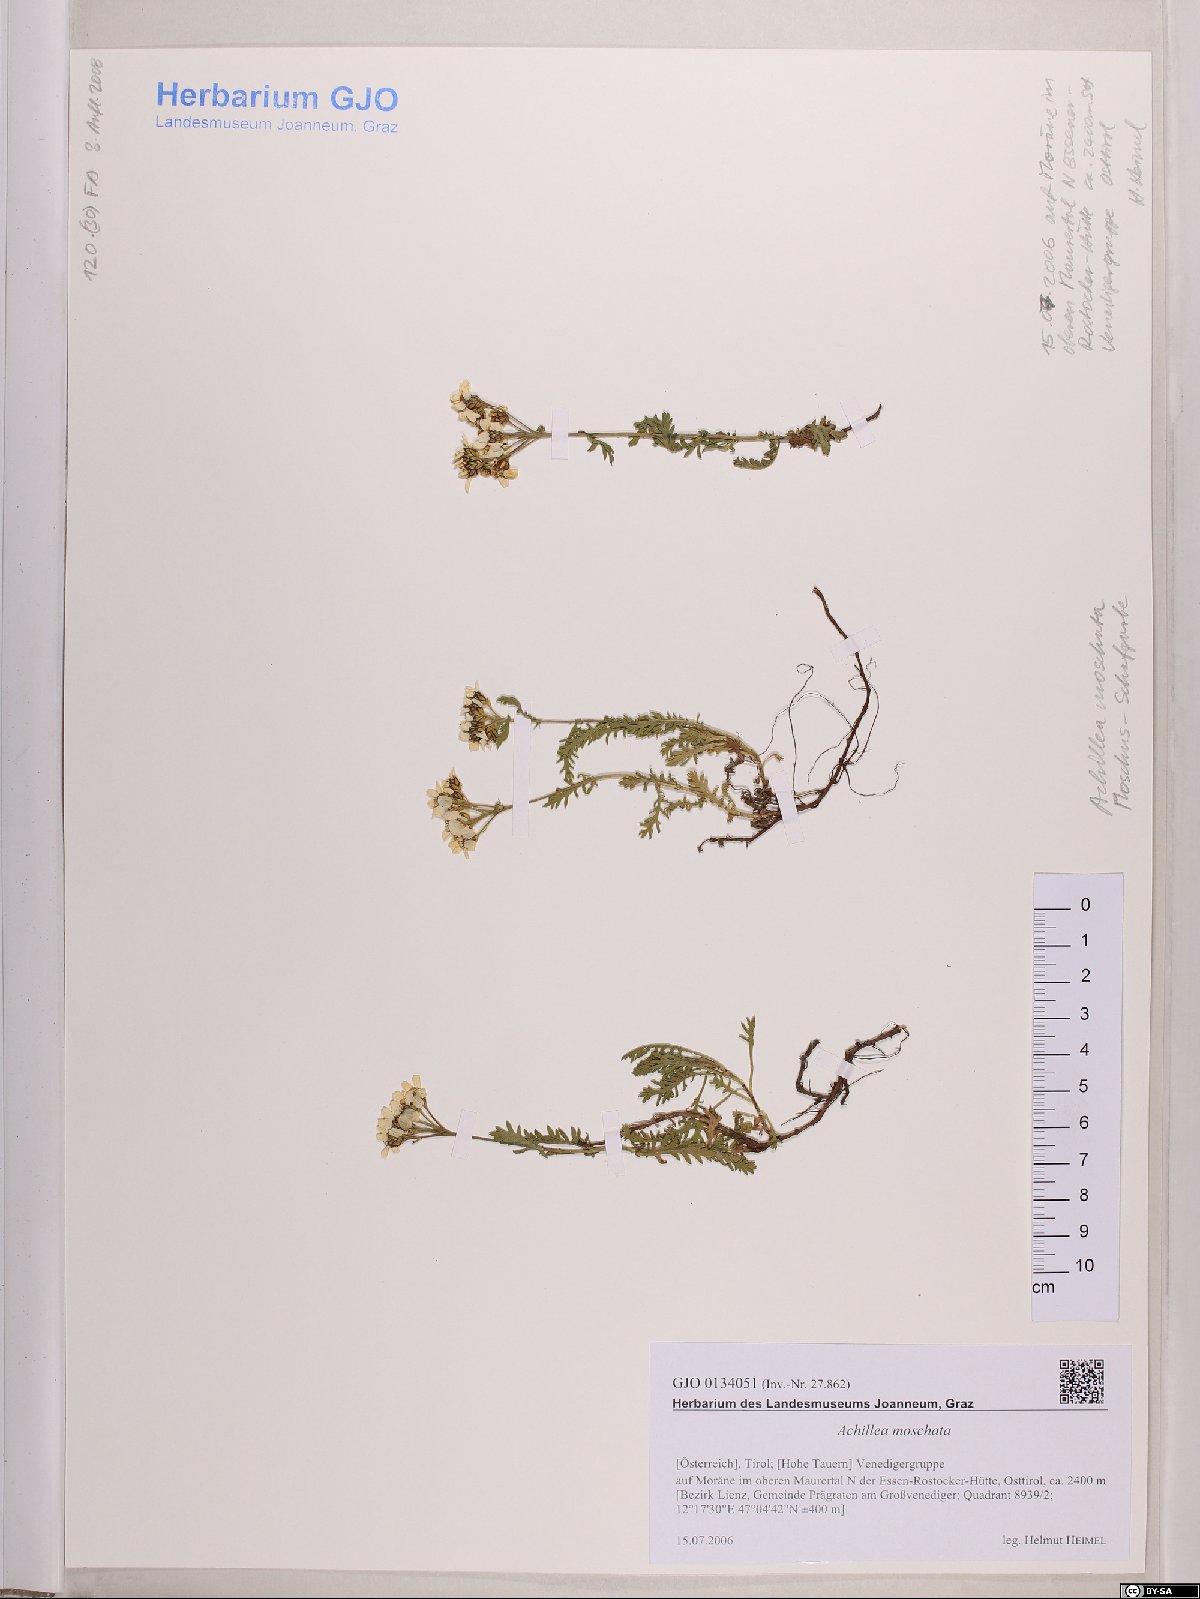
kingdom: Plantae
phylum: Tracheophyta
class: Magnoliopsida
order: Asterales
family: Asteraceae
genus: Achillea
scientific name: Achillea erba-rotta
